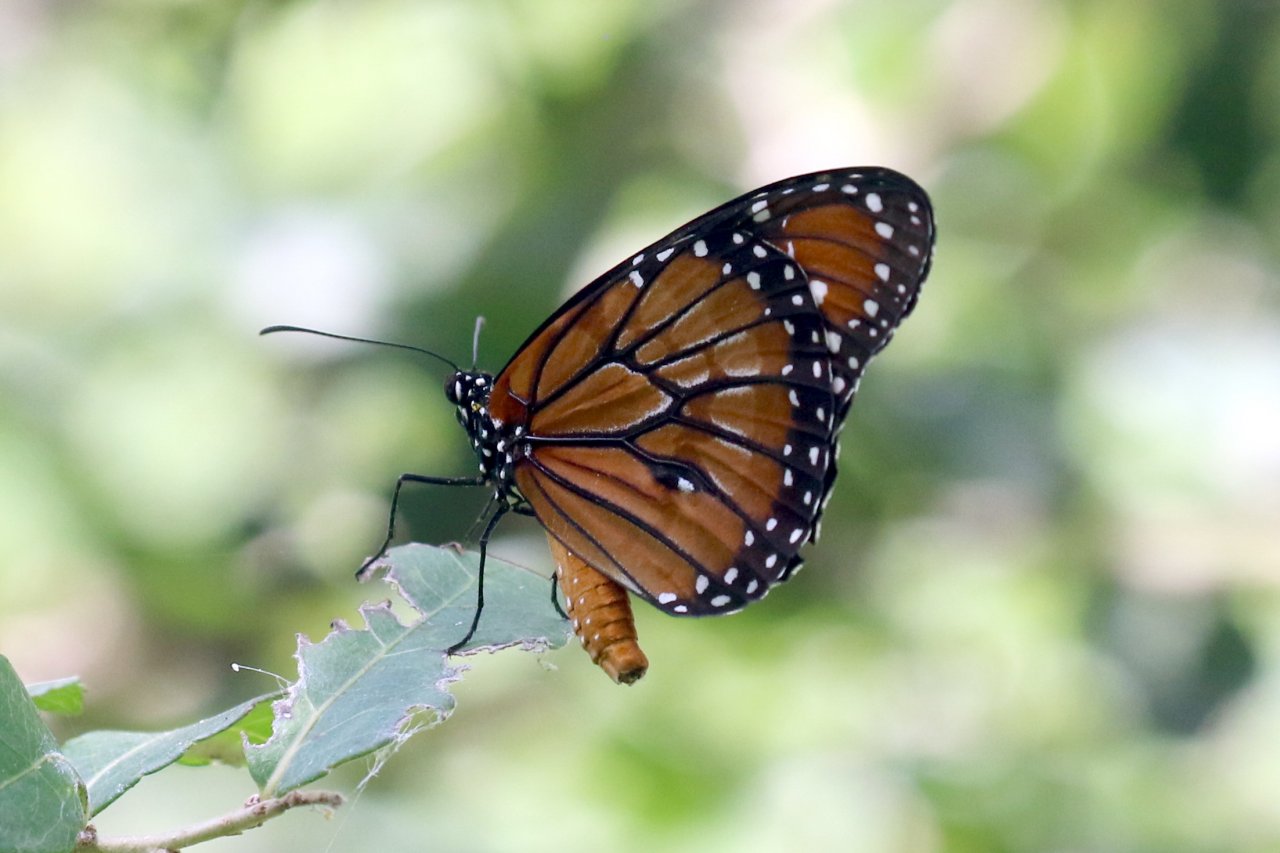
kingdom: Animalia
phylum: Arthropoda
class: Insecta
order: Lepidoptera
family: Nymphalidae
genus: Danaus
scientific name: Danaus eresimus
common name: Soldier
